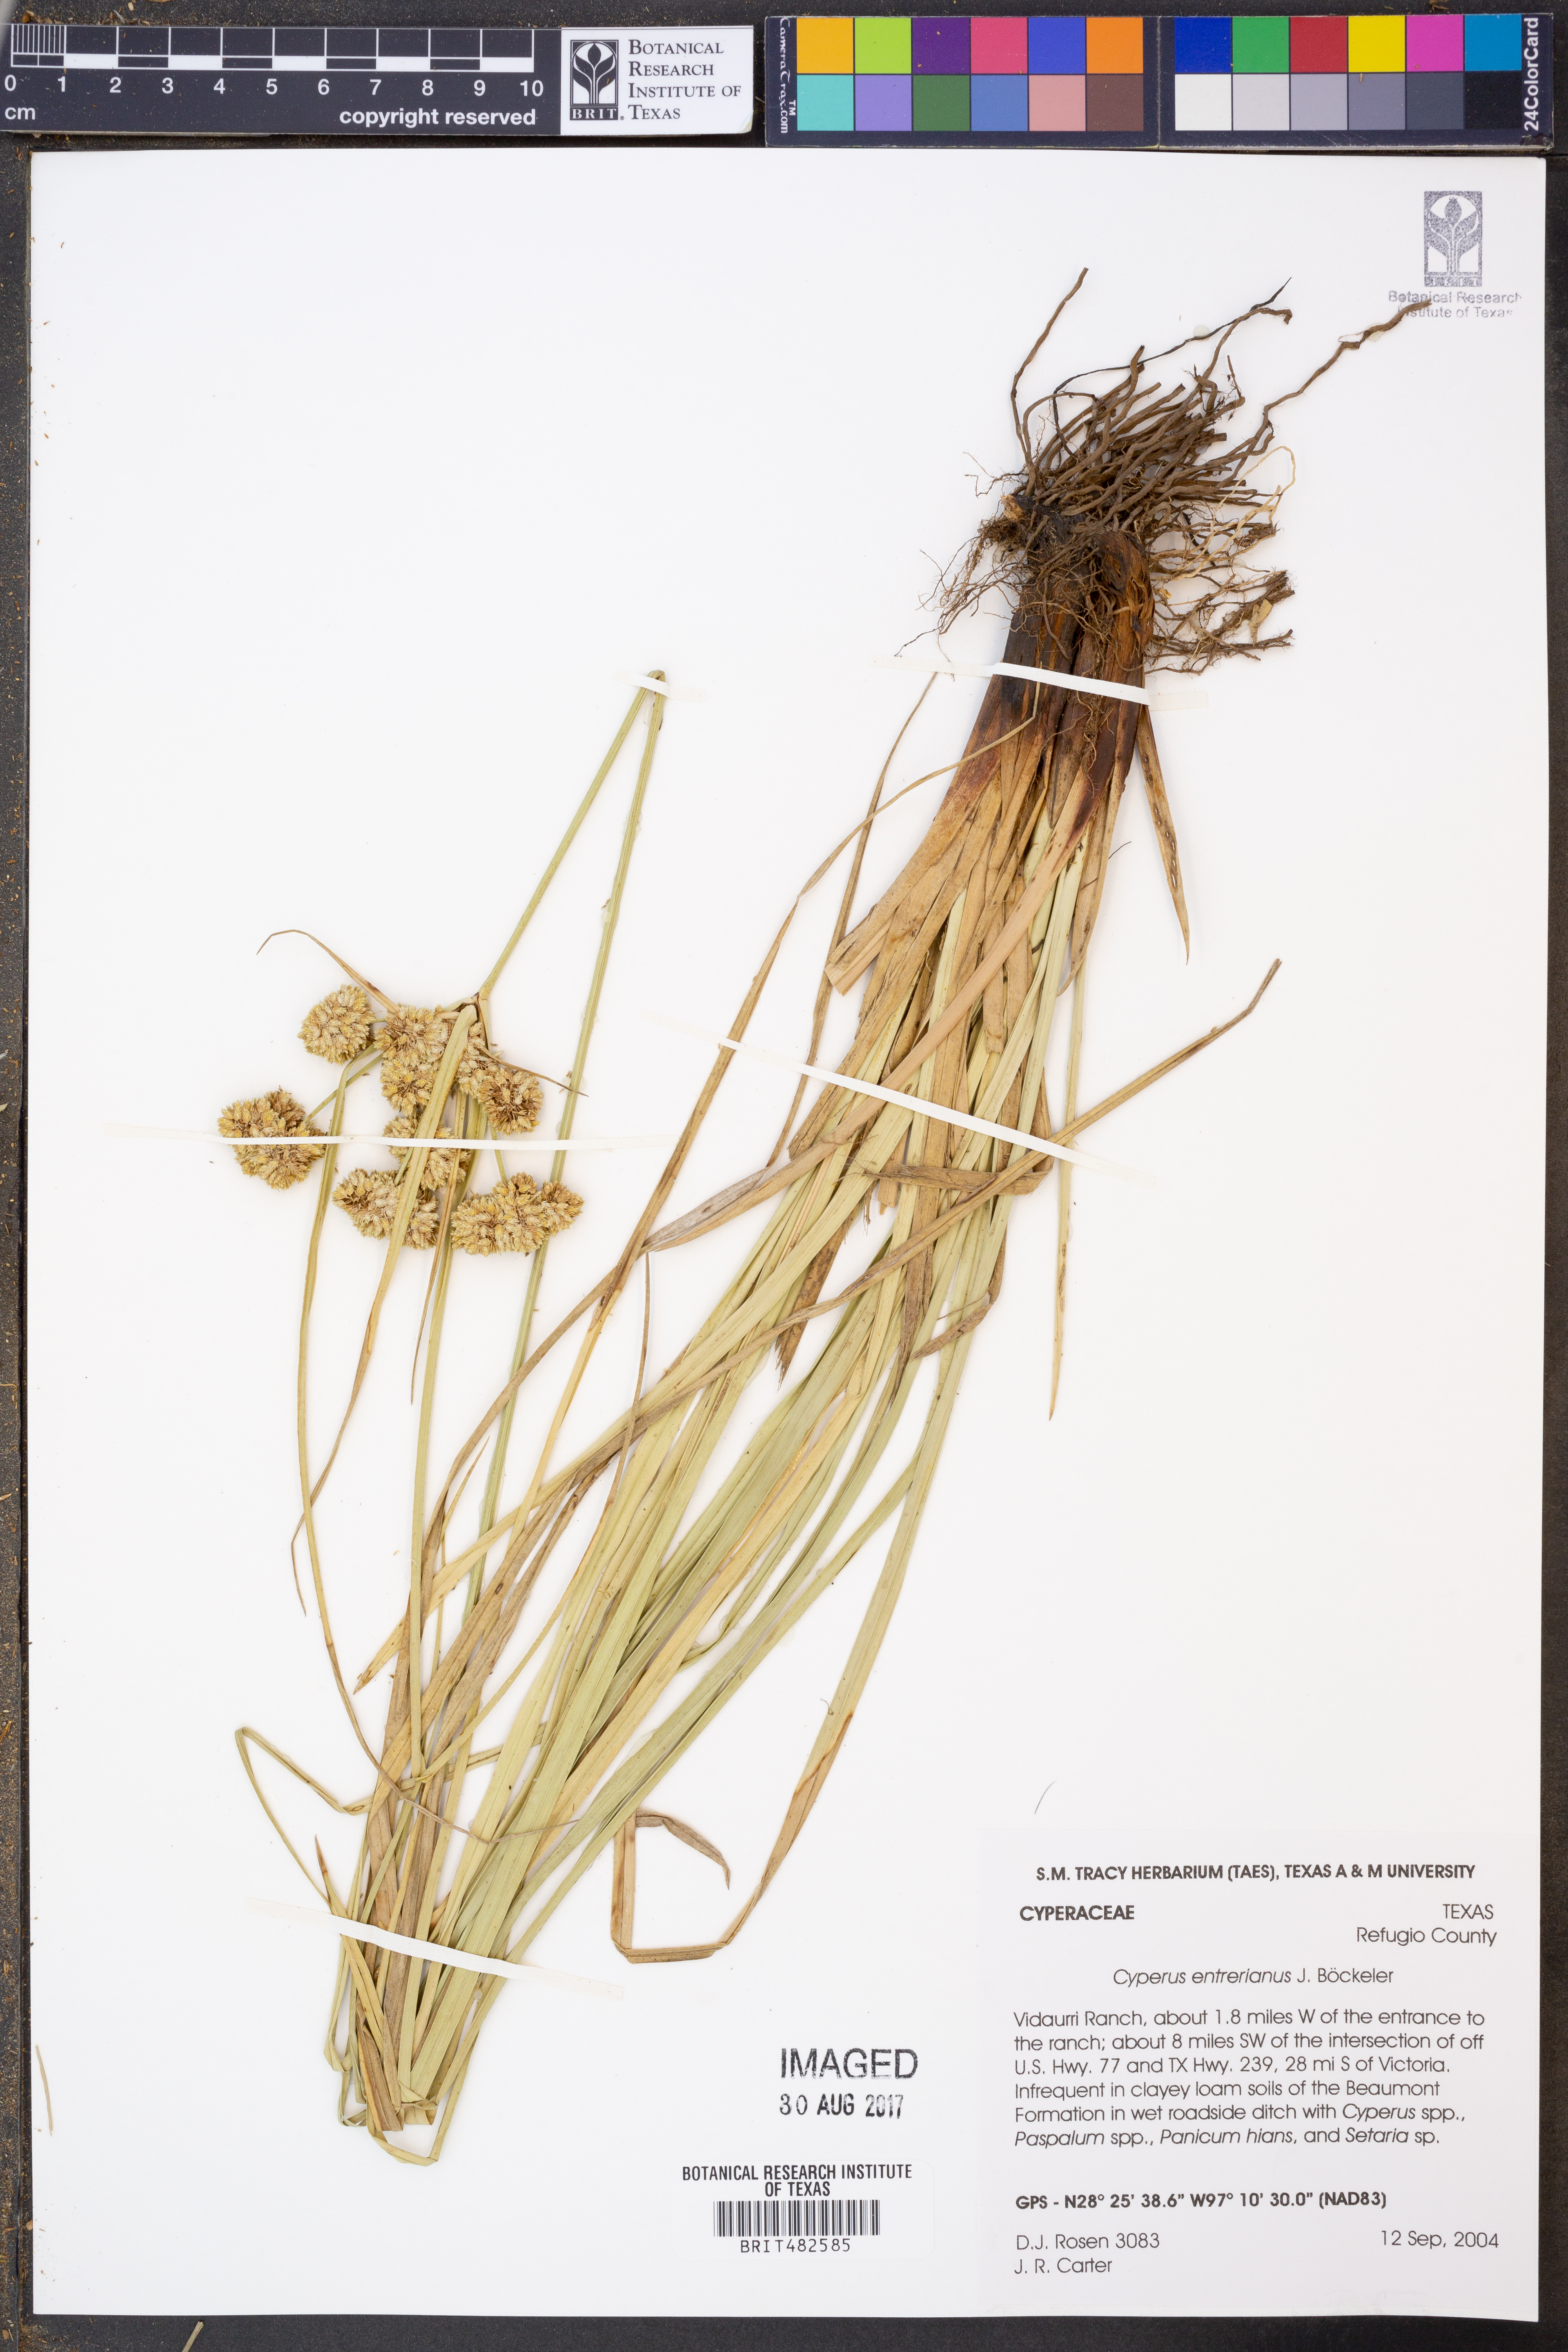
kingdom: Plantae
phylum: Tracheophyta
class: Liliopsida
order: Poales
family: Cyperaceae
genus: Cyperus
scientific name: Cyperus entrerianus
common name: Woodrush flatsedge
